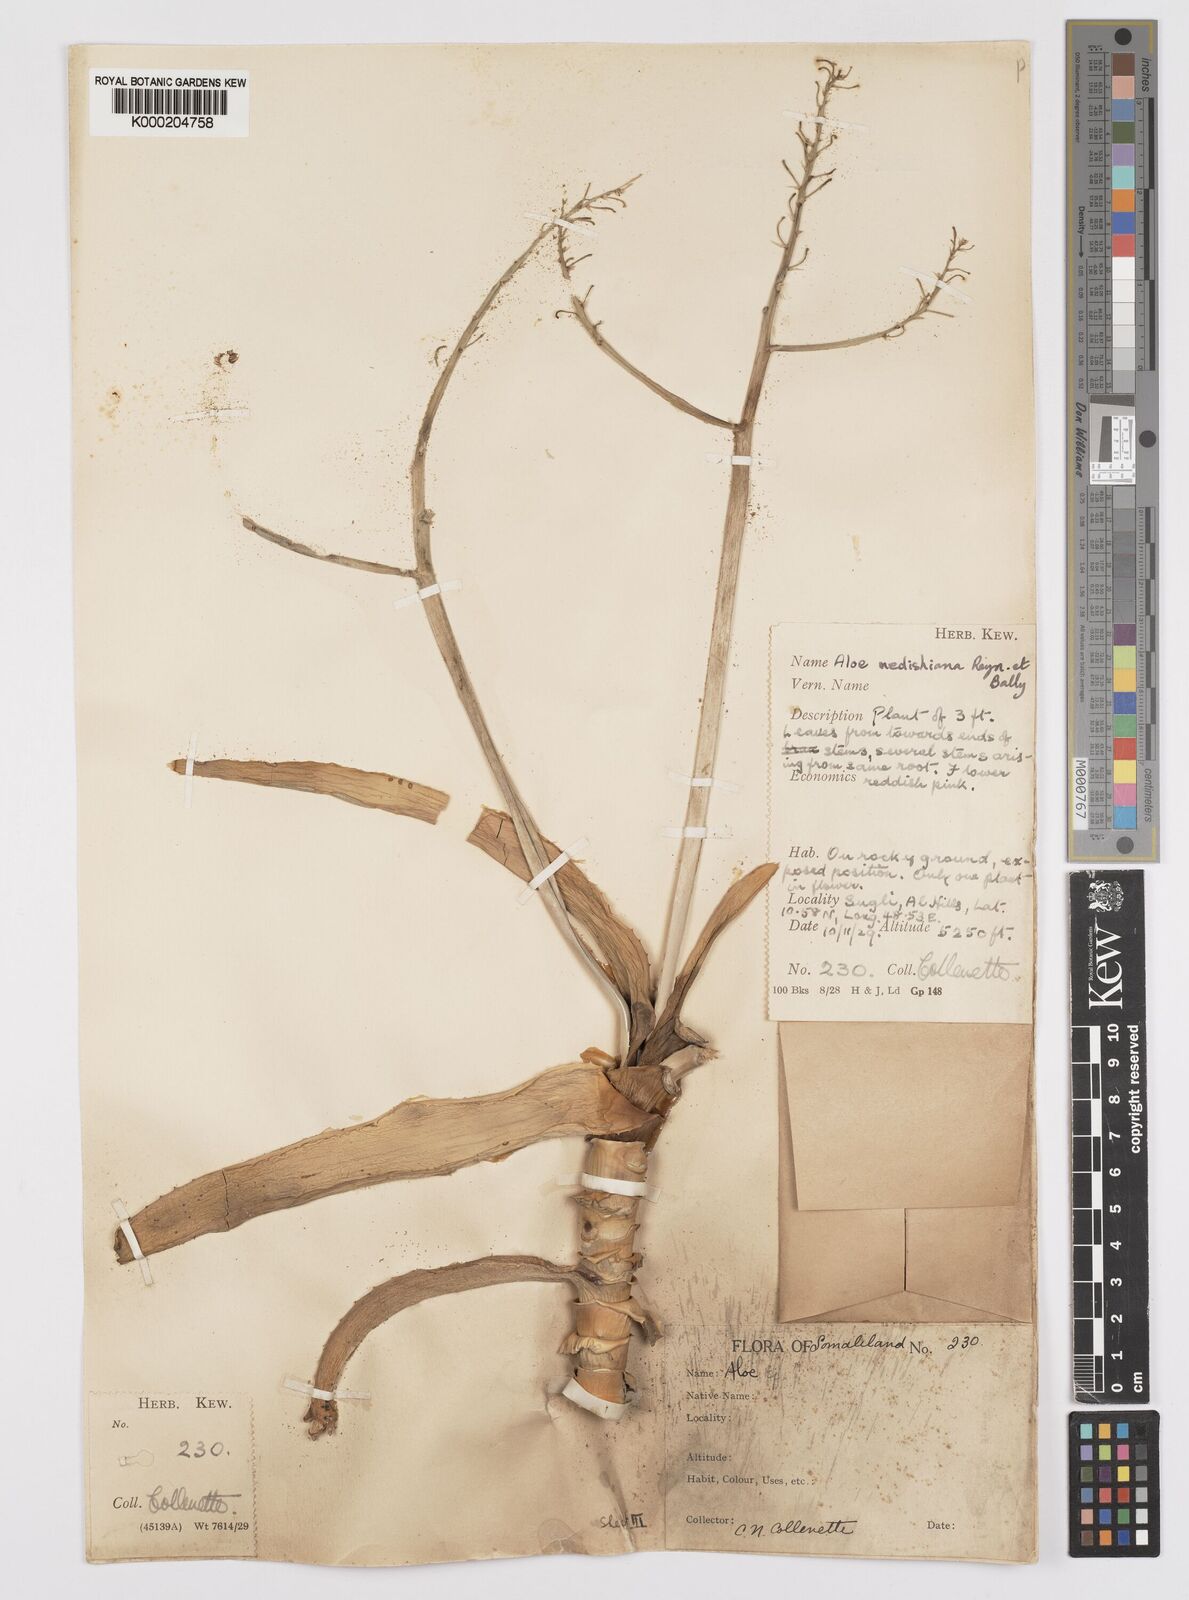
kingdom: Plantae
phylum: Tracheophyta
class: Liliopsida
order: Asparagales
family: Asphodelaceae
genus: Aloe
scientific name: Aloe medishiana
